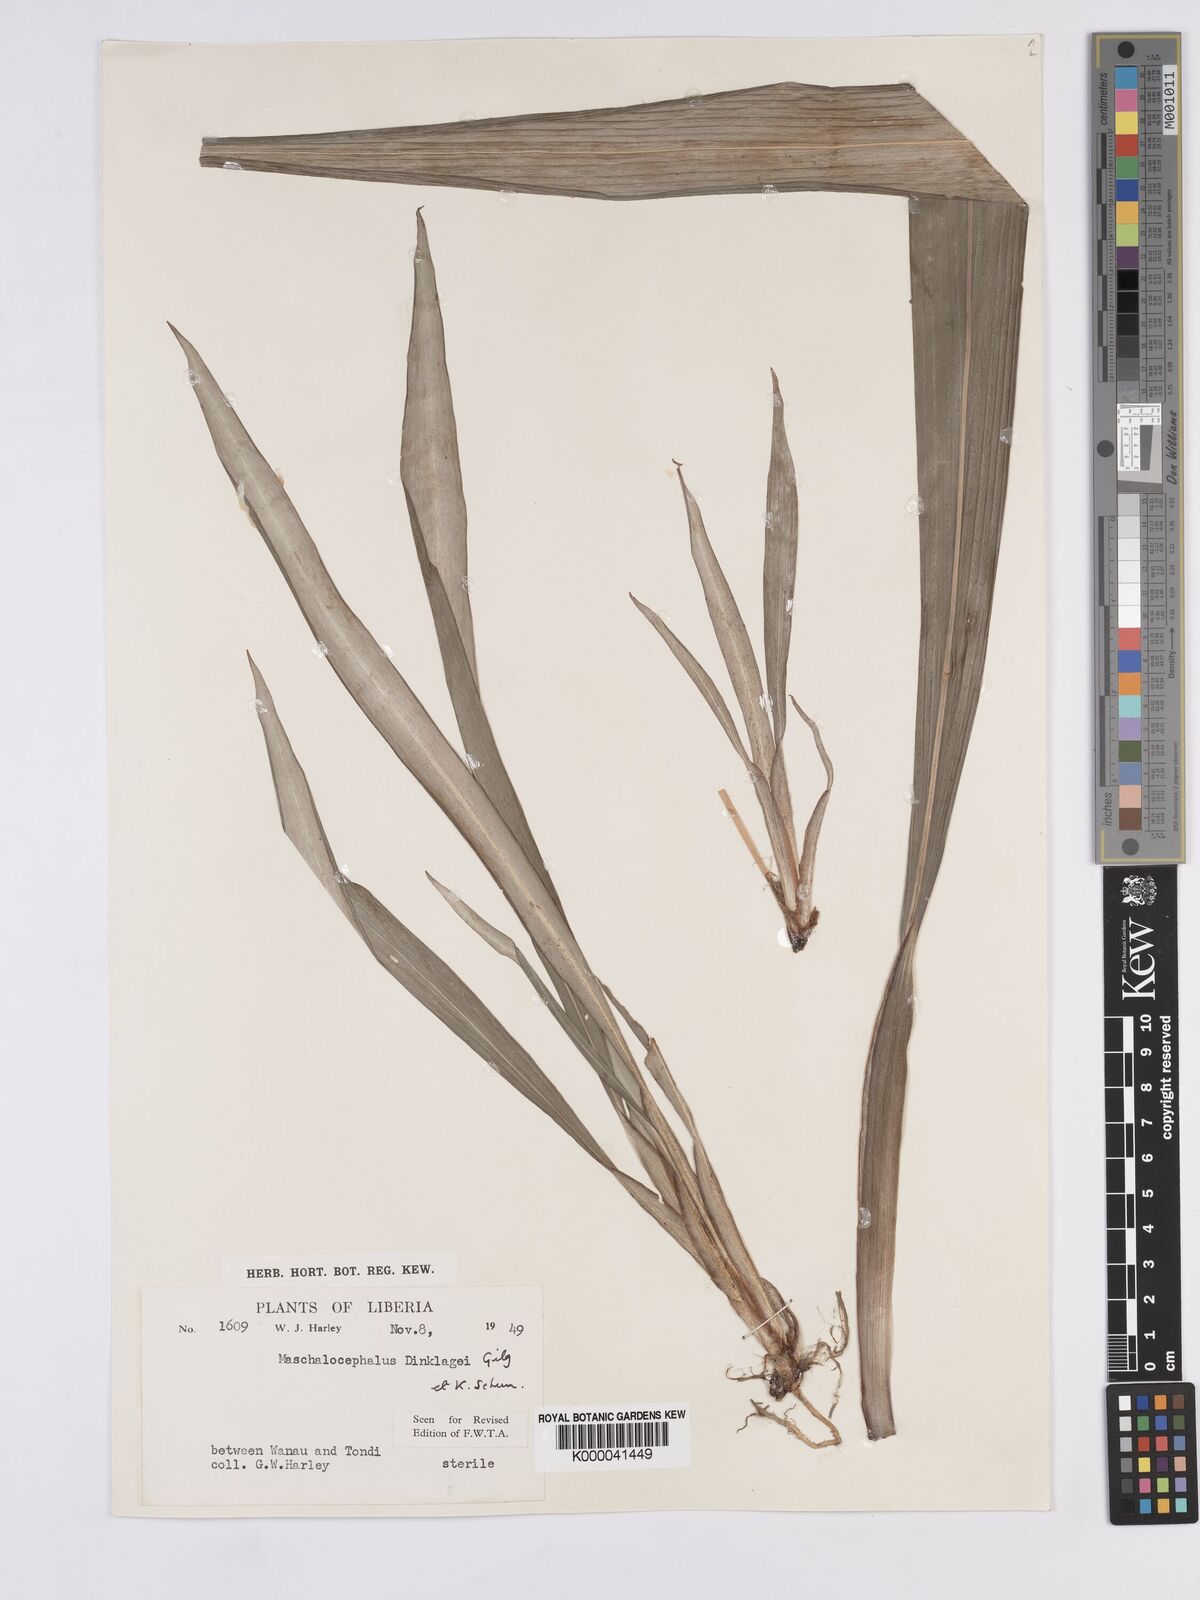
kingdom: Plantae
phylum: Tracheophyta
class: Liliopsida
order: Poales
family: Rapateaceae
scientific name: Rapateaceae
